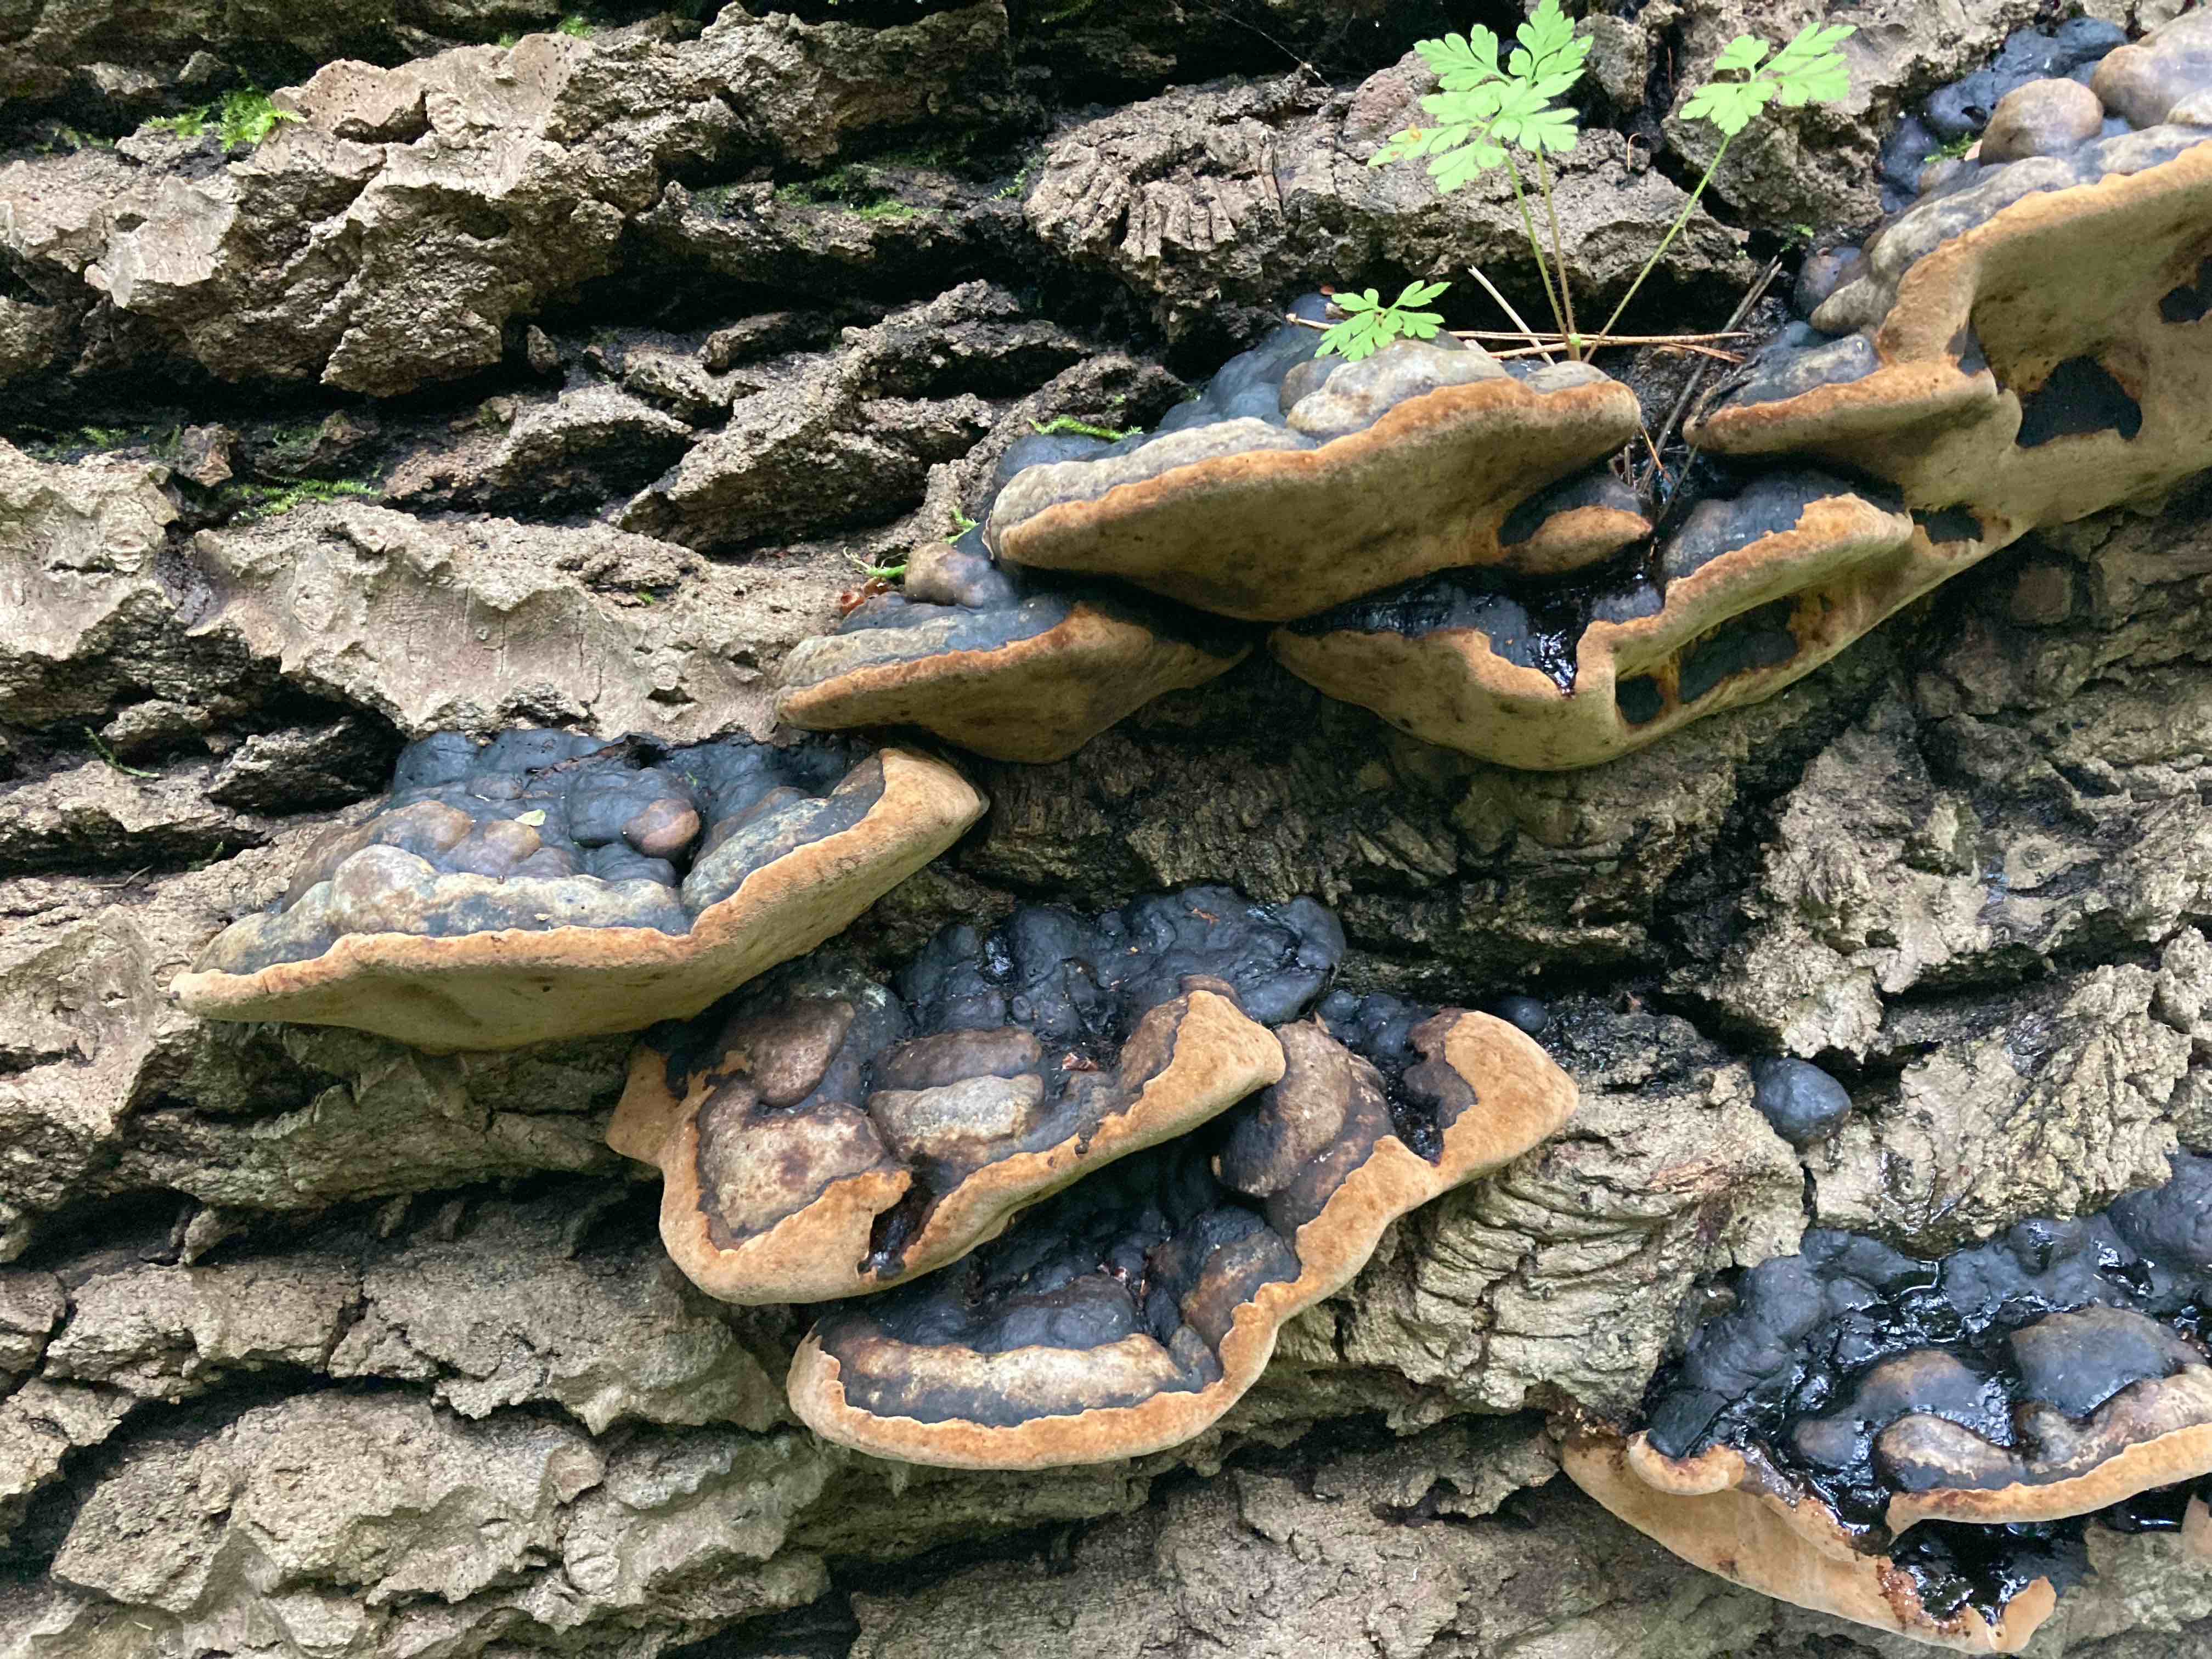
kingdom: Fungi
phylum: Basidiomycota
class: Agaricomycetes
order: Hymenochaetales
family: Hymenochaetaceae
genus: Phellinus
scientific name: Phellinus populicola
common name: poppel-ildporesvamp
